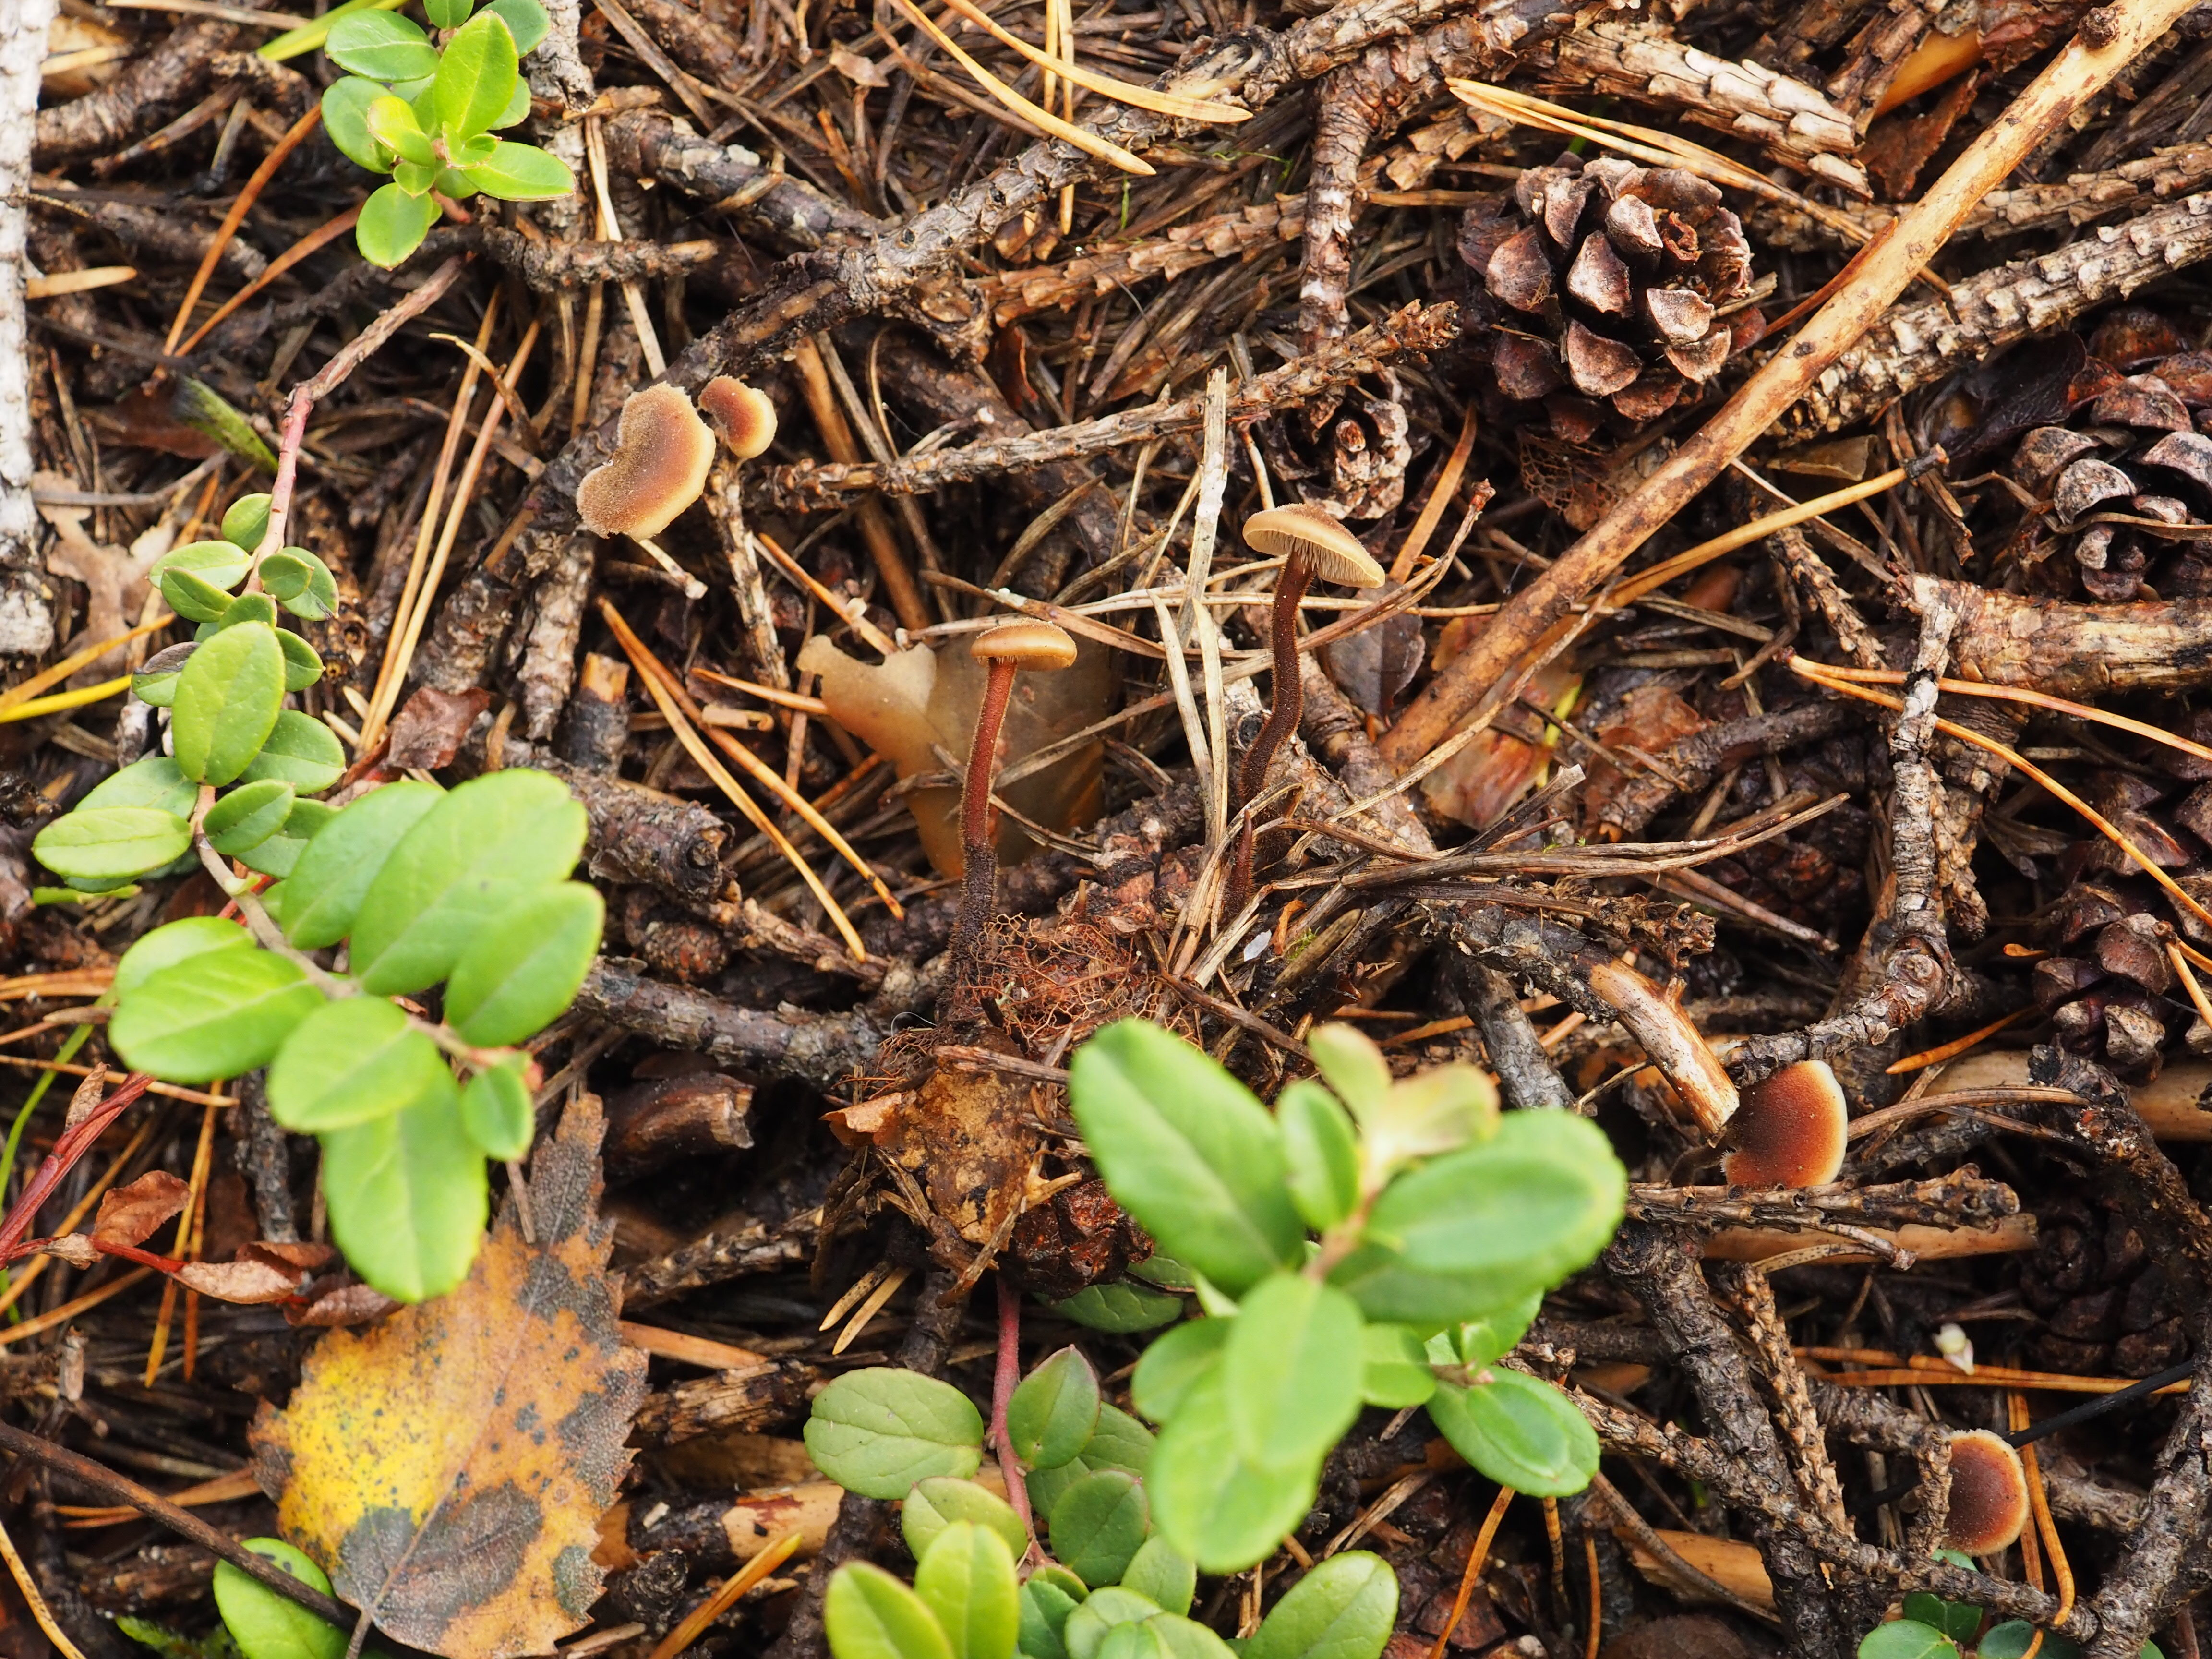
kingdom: Fungi
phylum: Basidiomycota
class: Agaricomycetes
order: Russulales
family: Auriscalpiaceae
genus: Auriscalpium
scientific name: Auriscalpium vulgare
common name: Earpick fungus
